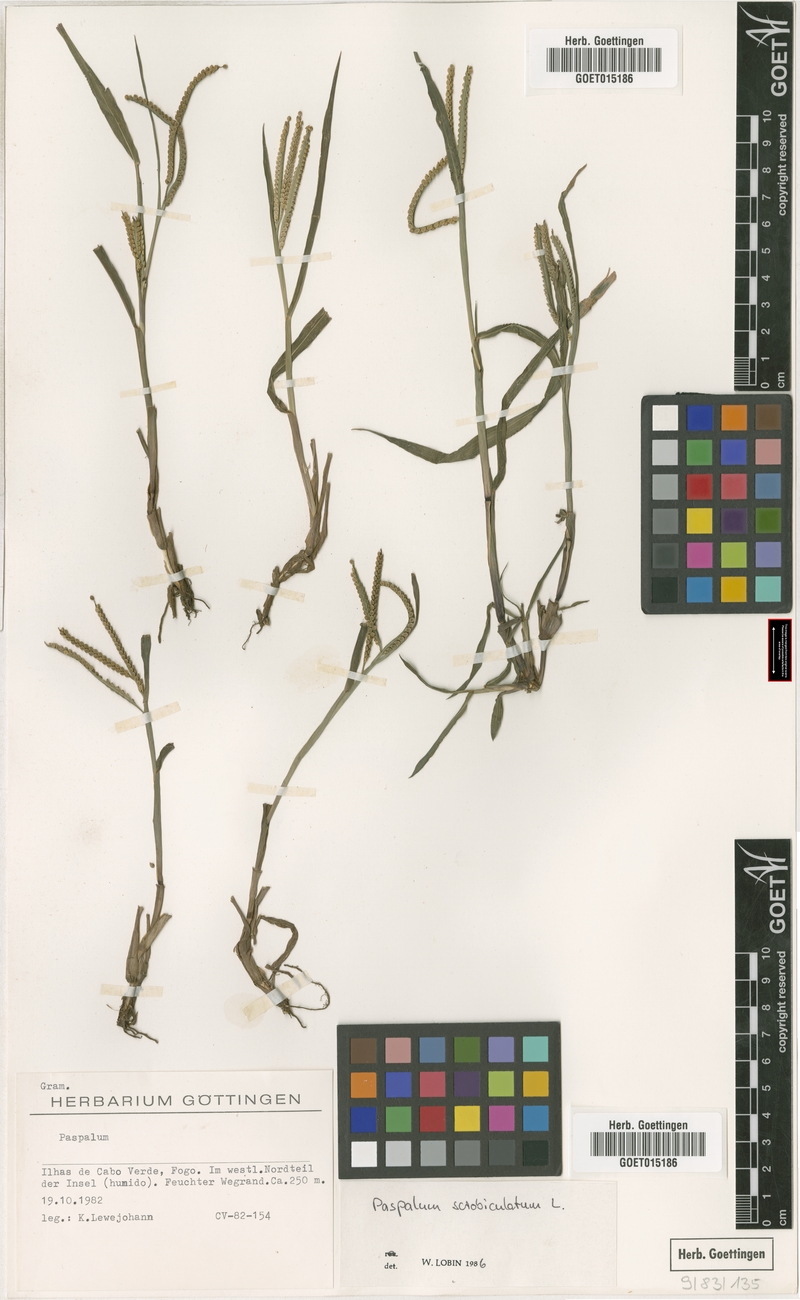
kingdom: Plantae
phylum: Tracheophyta
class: Liliopsida
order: Poales
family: Poaceae
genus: Paspalum
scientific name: Paspalum scrobiculatum
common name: Kodo millet
